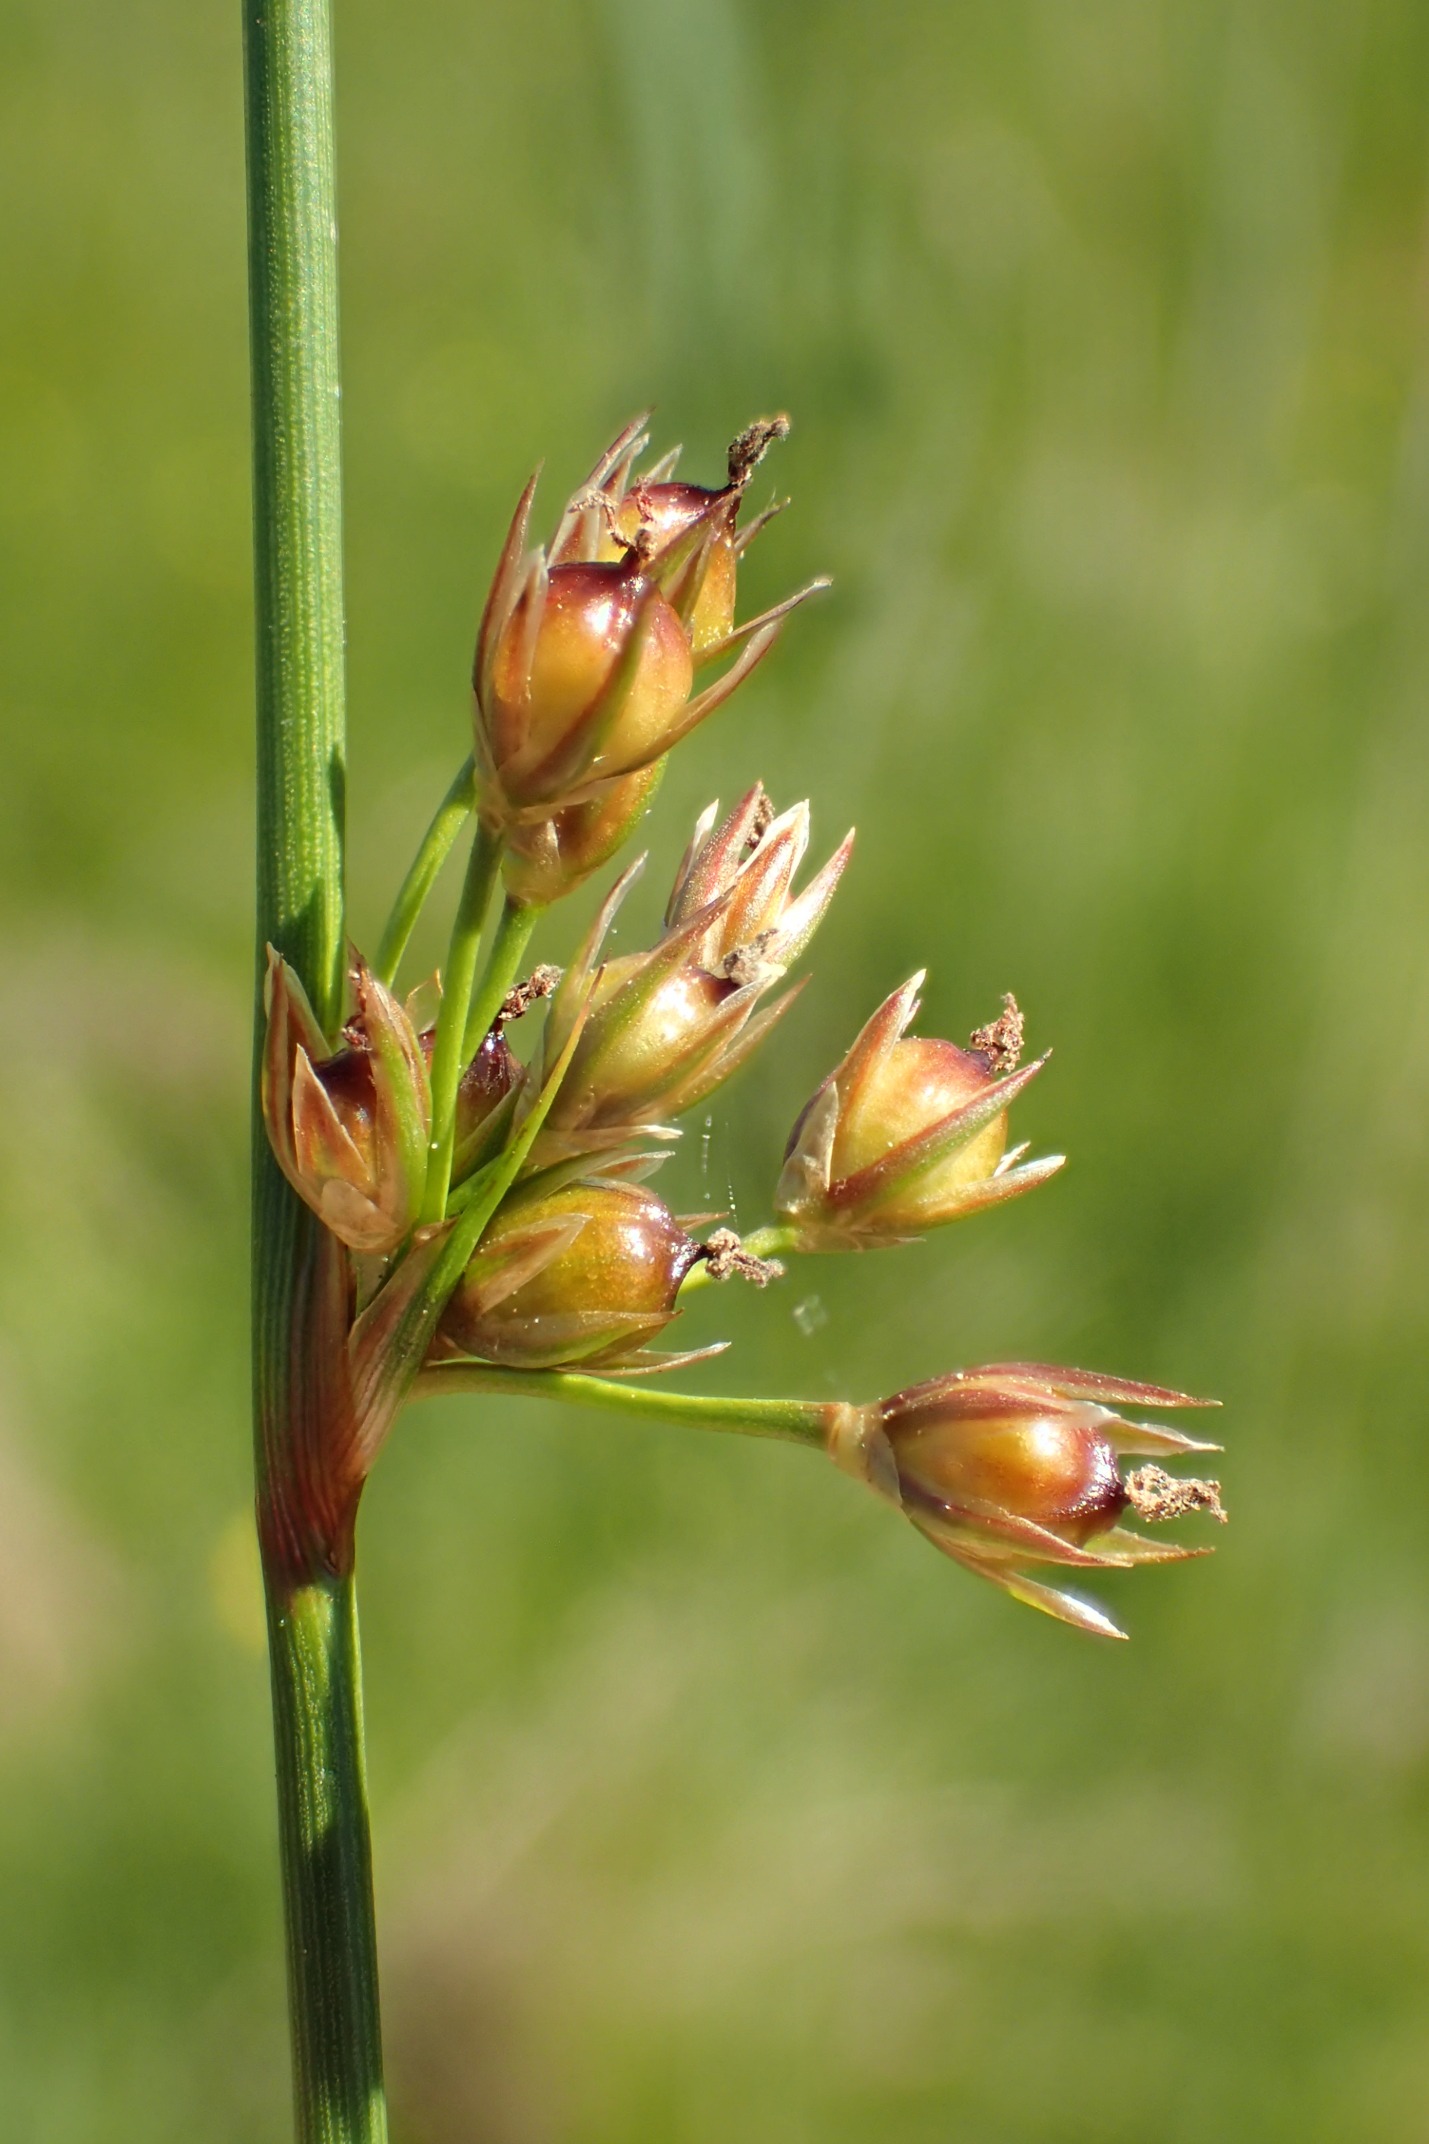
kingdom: Plantae
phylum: Tracheophyta
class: Liliopsida
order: Poales
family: Juncaceae
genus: Juncus
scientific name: Juncus filiformis
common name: Tråd-siv
